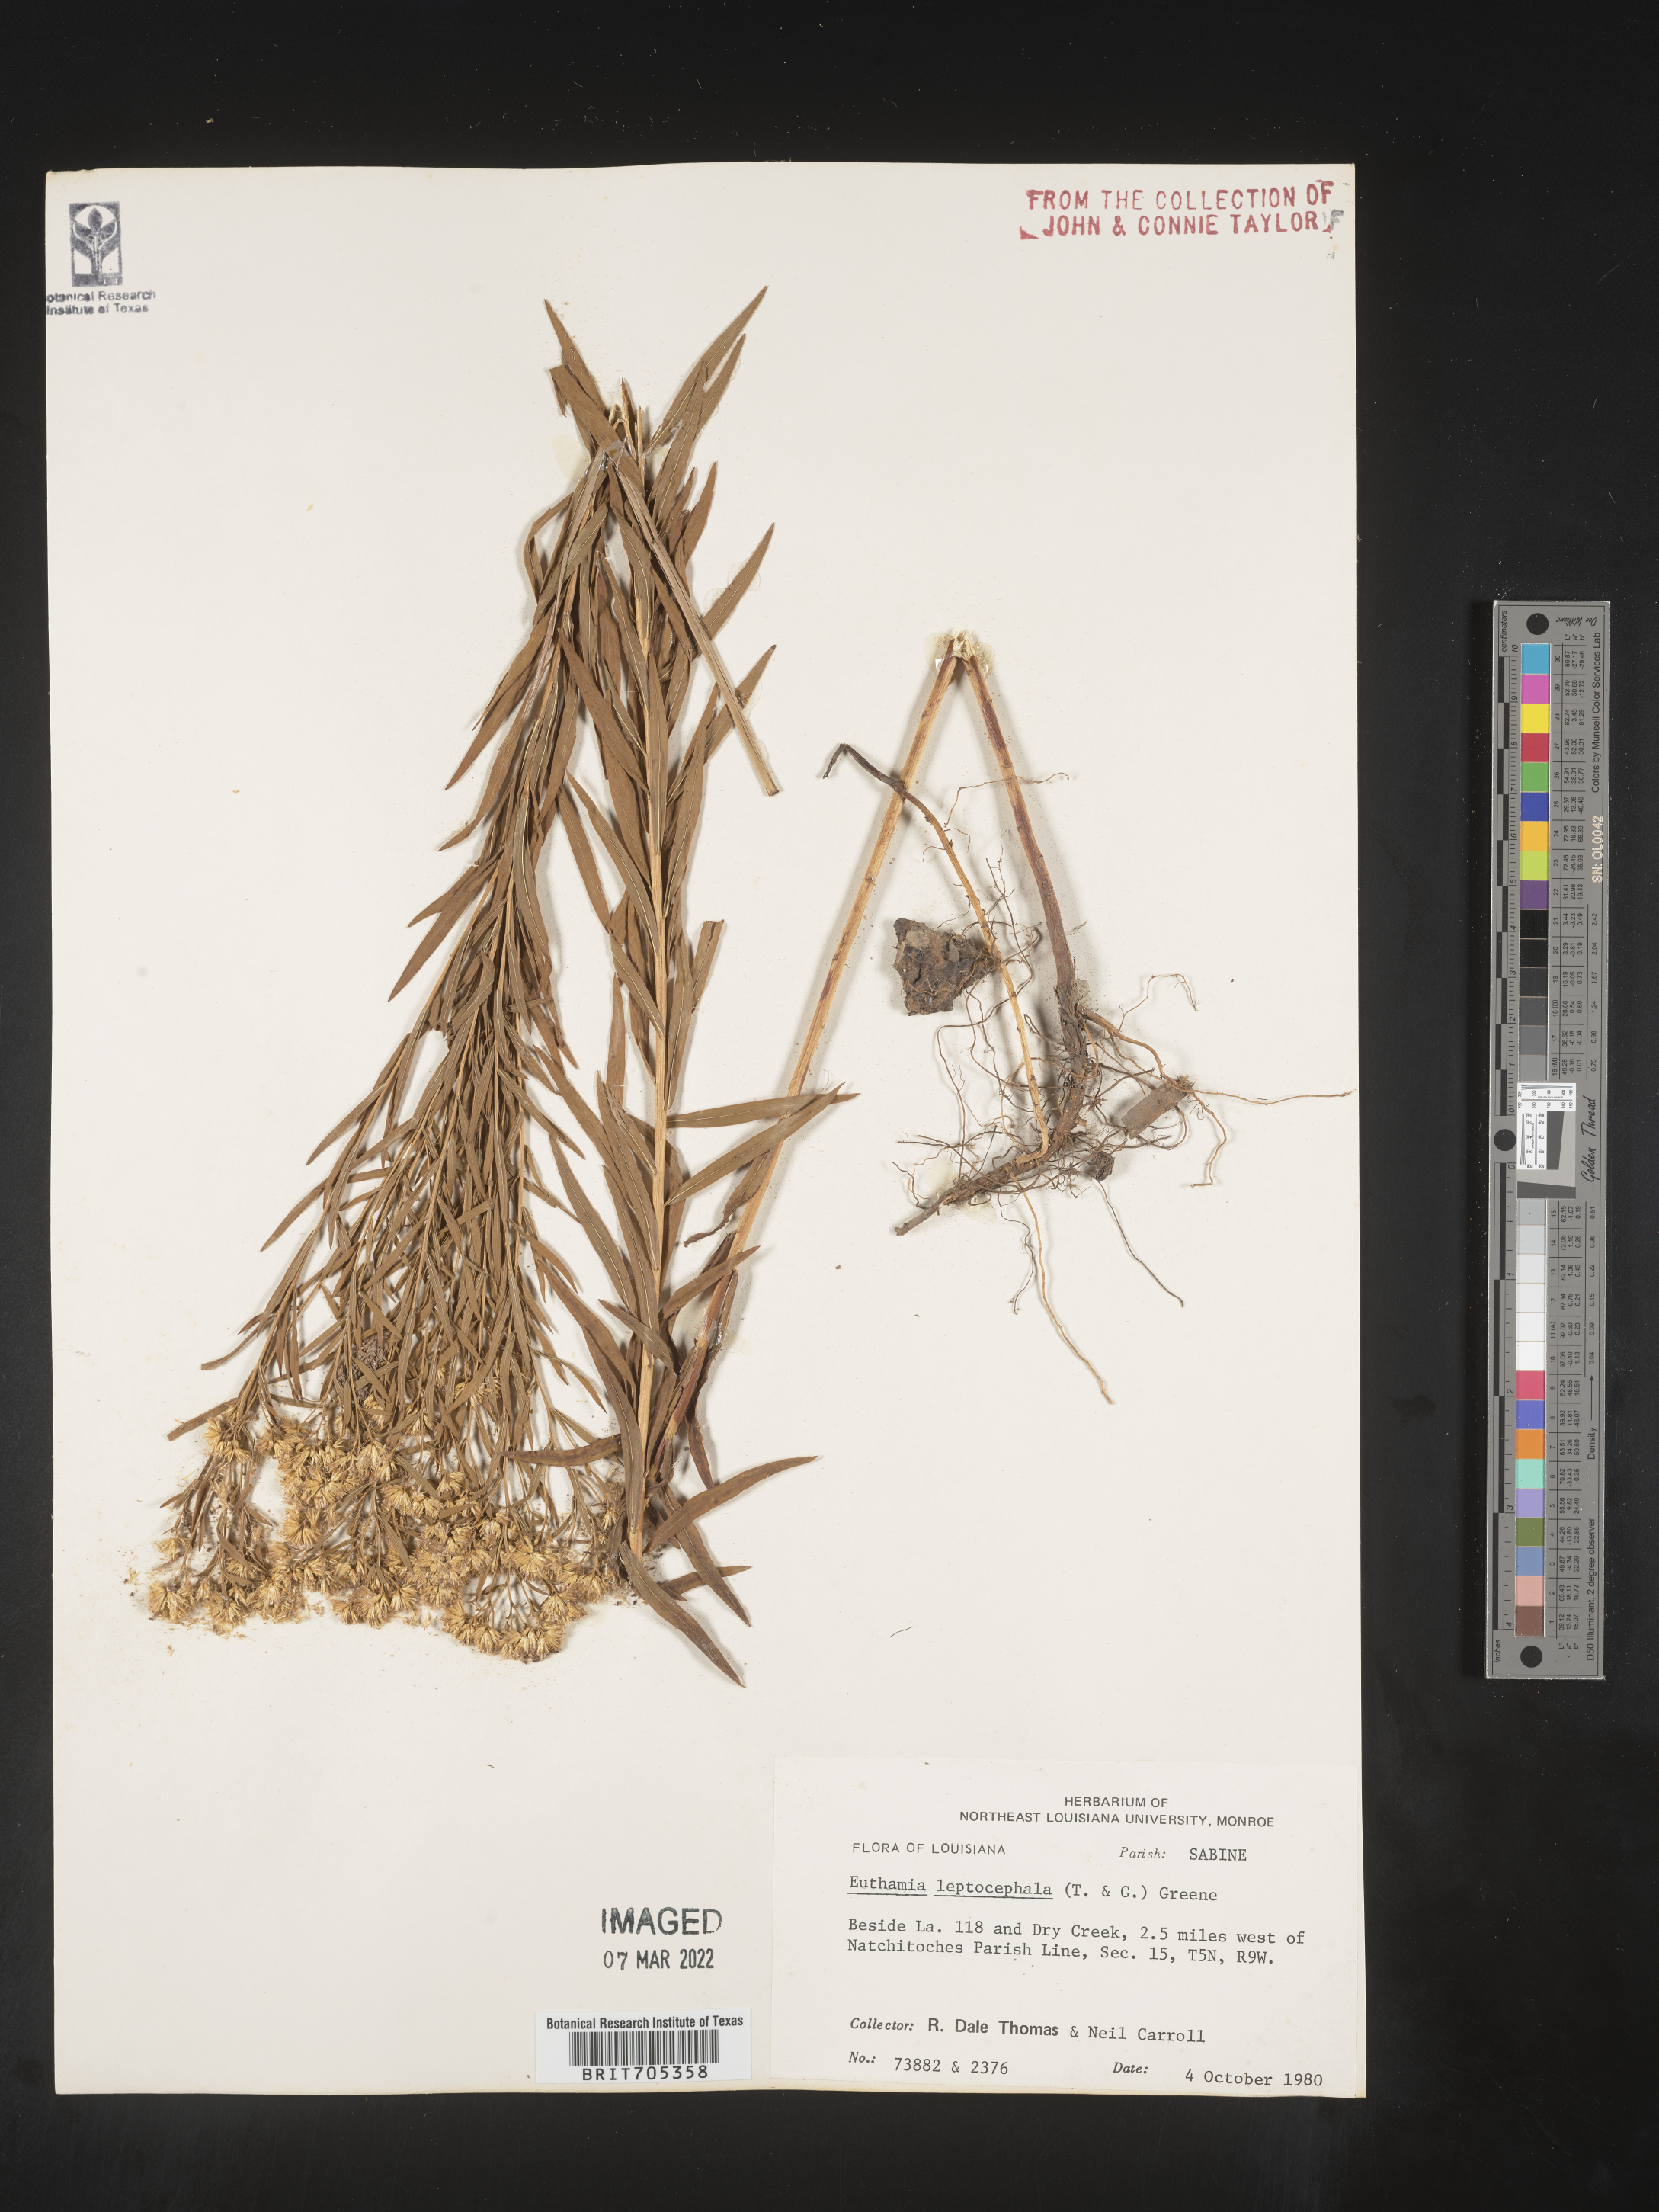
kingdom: Plantae
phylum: Tracheophyta
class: Magnoliopsida
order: Asterales
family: Asteraceae
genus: Euthamia
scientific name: Euthamia leptocephala
